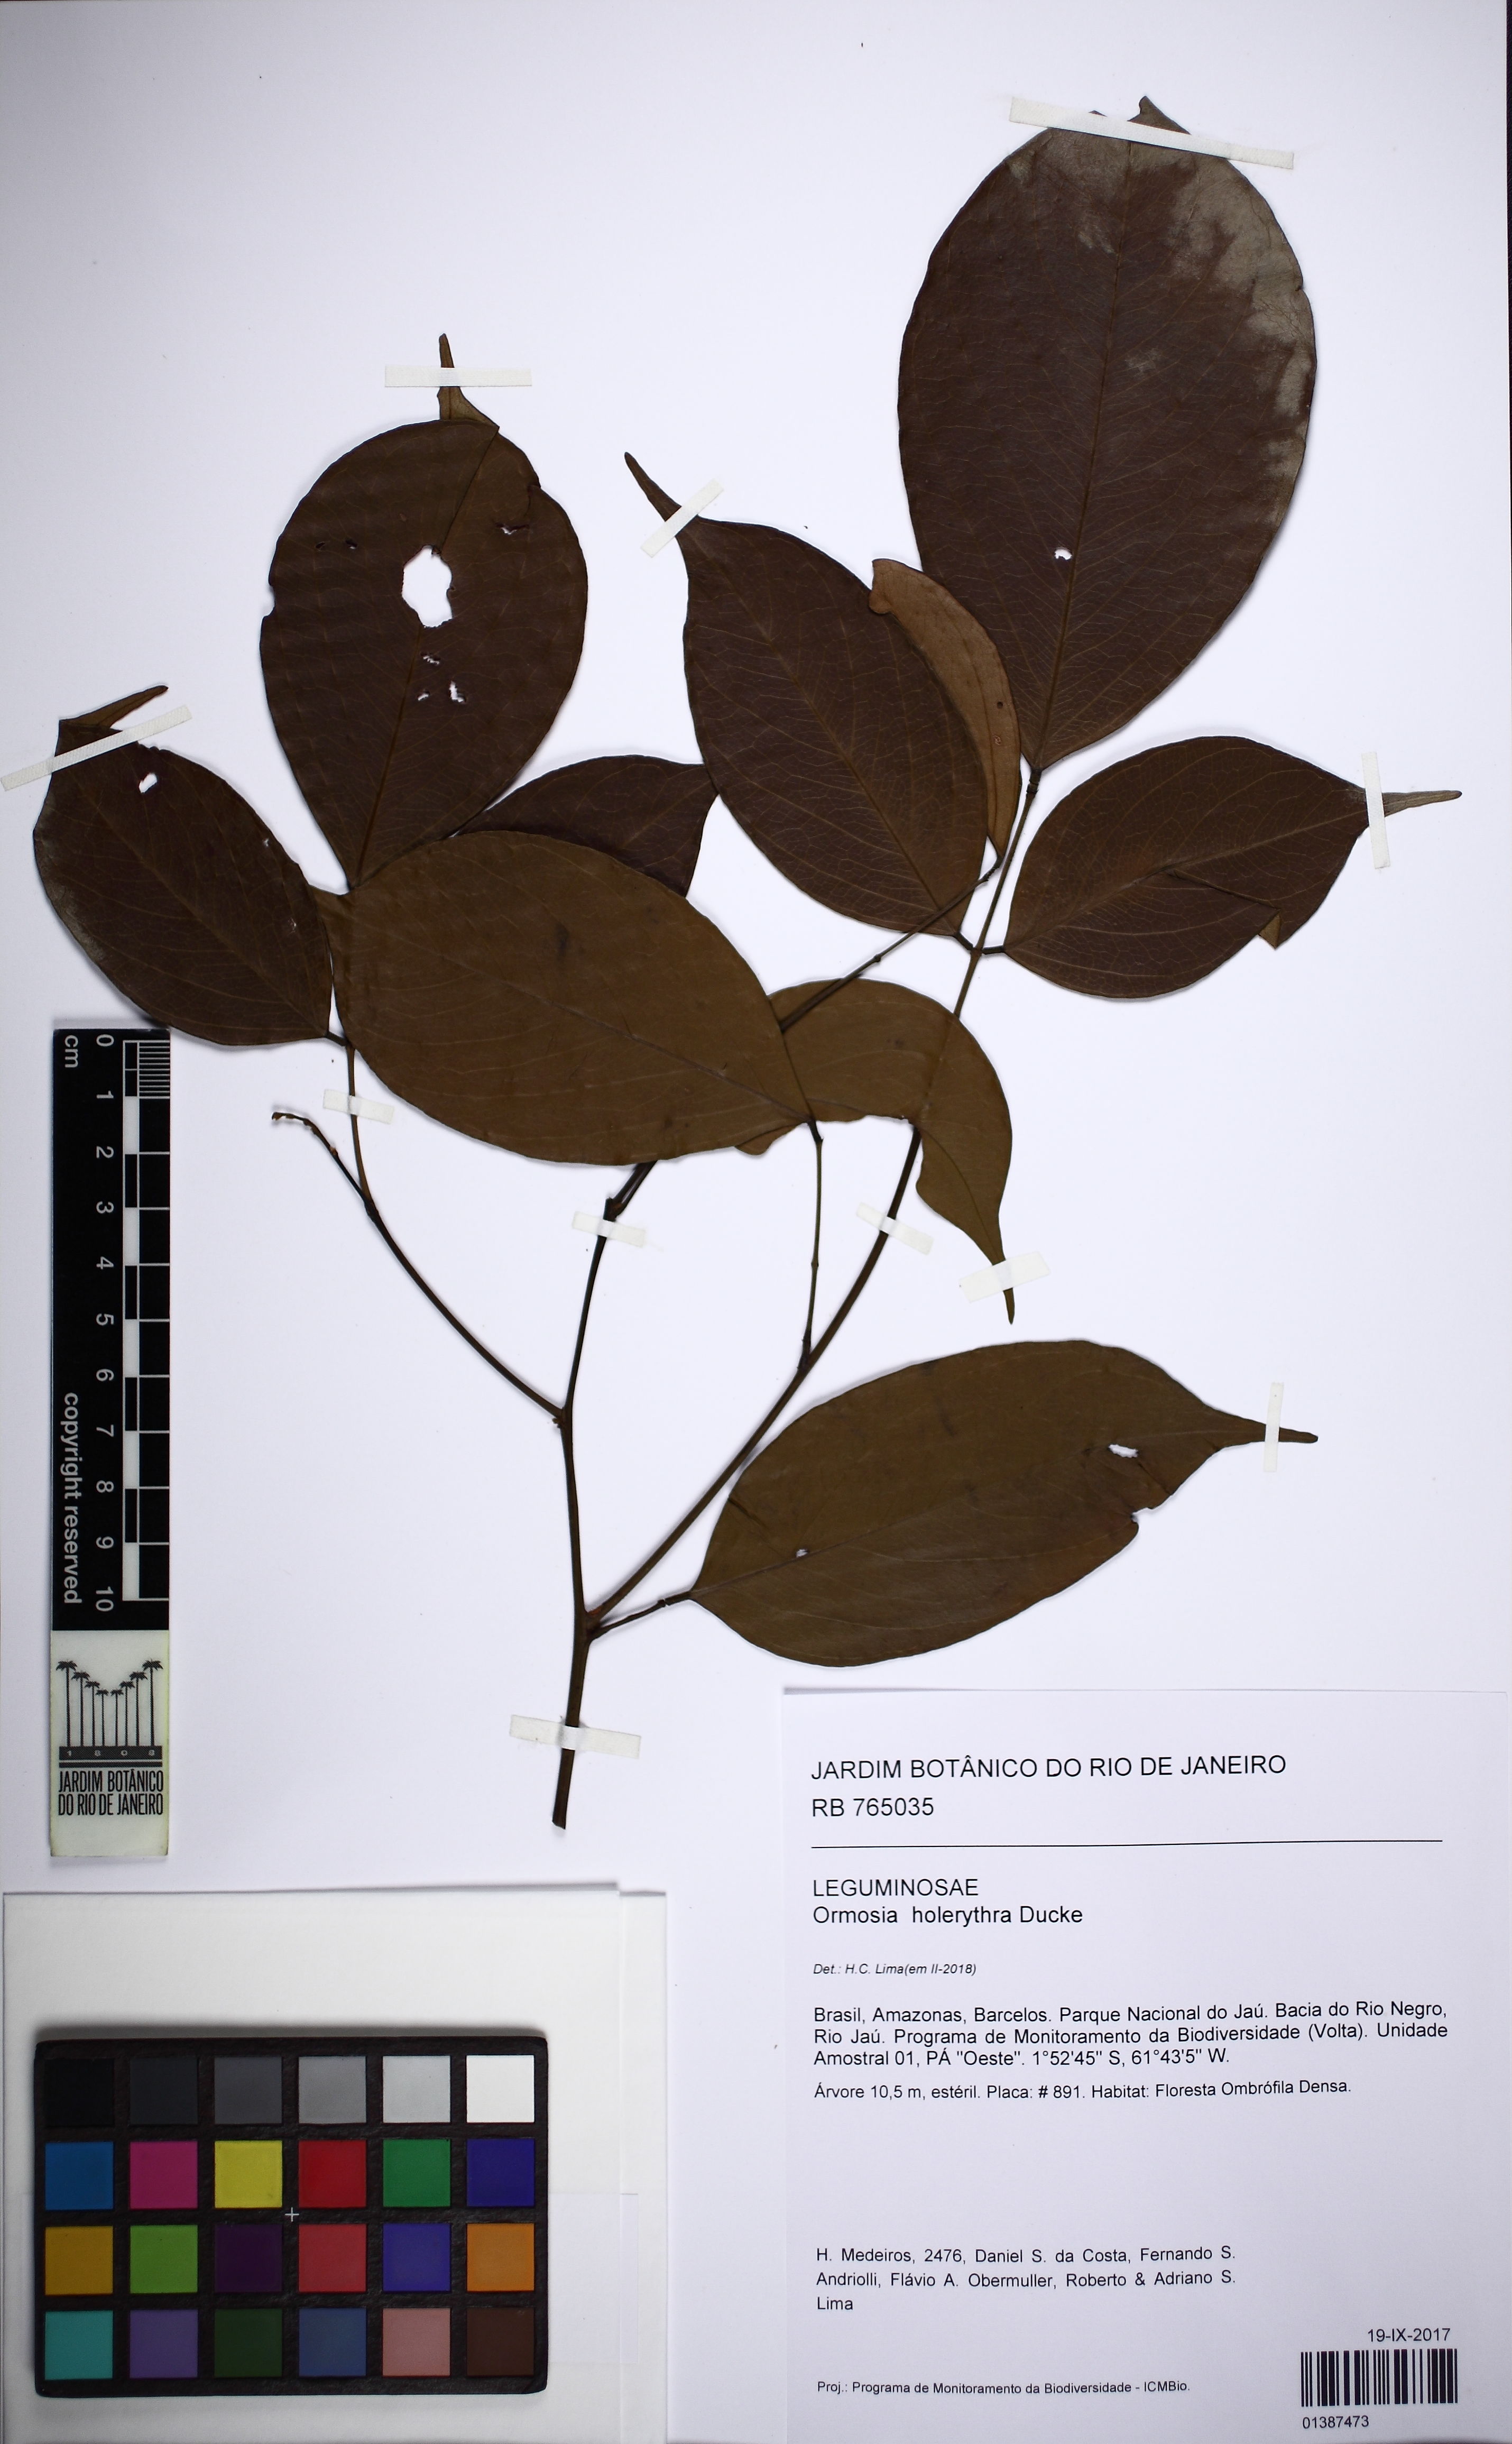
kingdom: Plantae
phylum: Tracheophyta
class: Magnoliopsida
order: Fabales
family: Fabaceae
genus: Ormosia
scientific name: Ormosia holerythra
